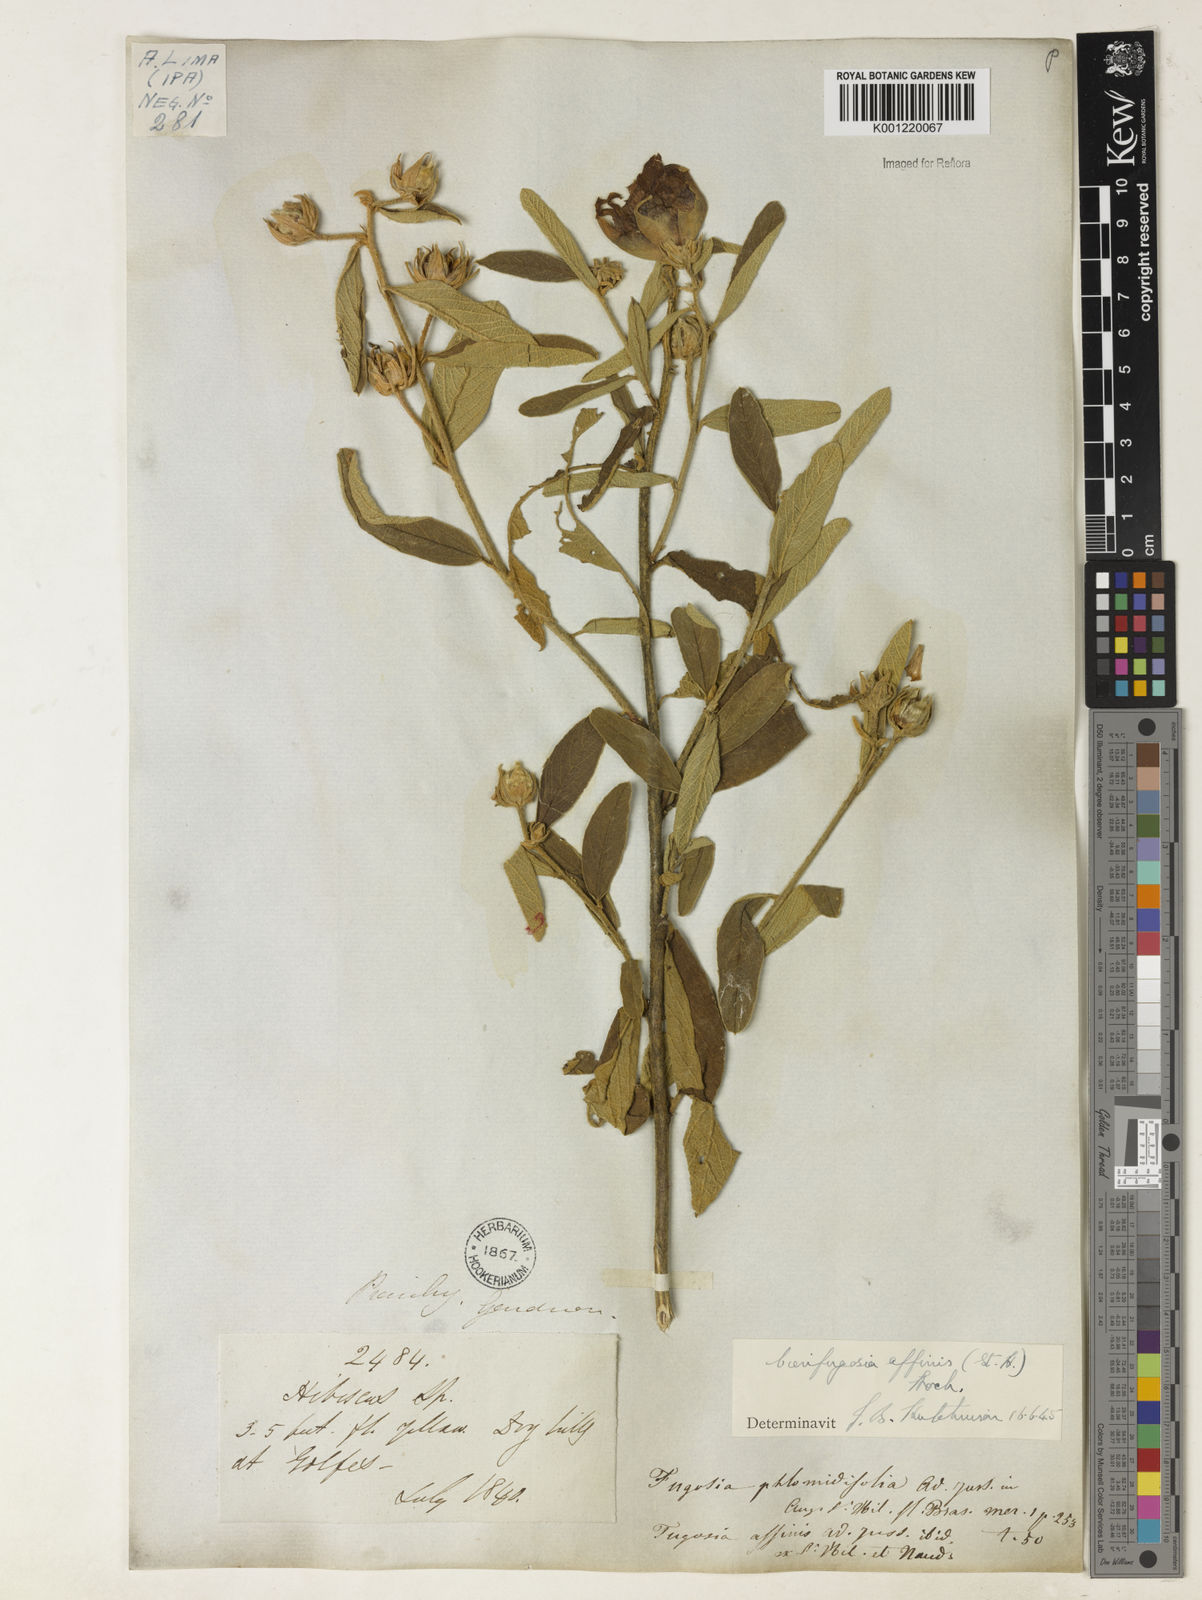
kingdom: Plantae
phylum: Tracheophyta
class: Magnoliopsida
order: Malvales
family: Malvaceae
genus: Cienfuegosia
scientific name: Cienfuegosia affinis
